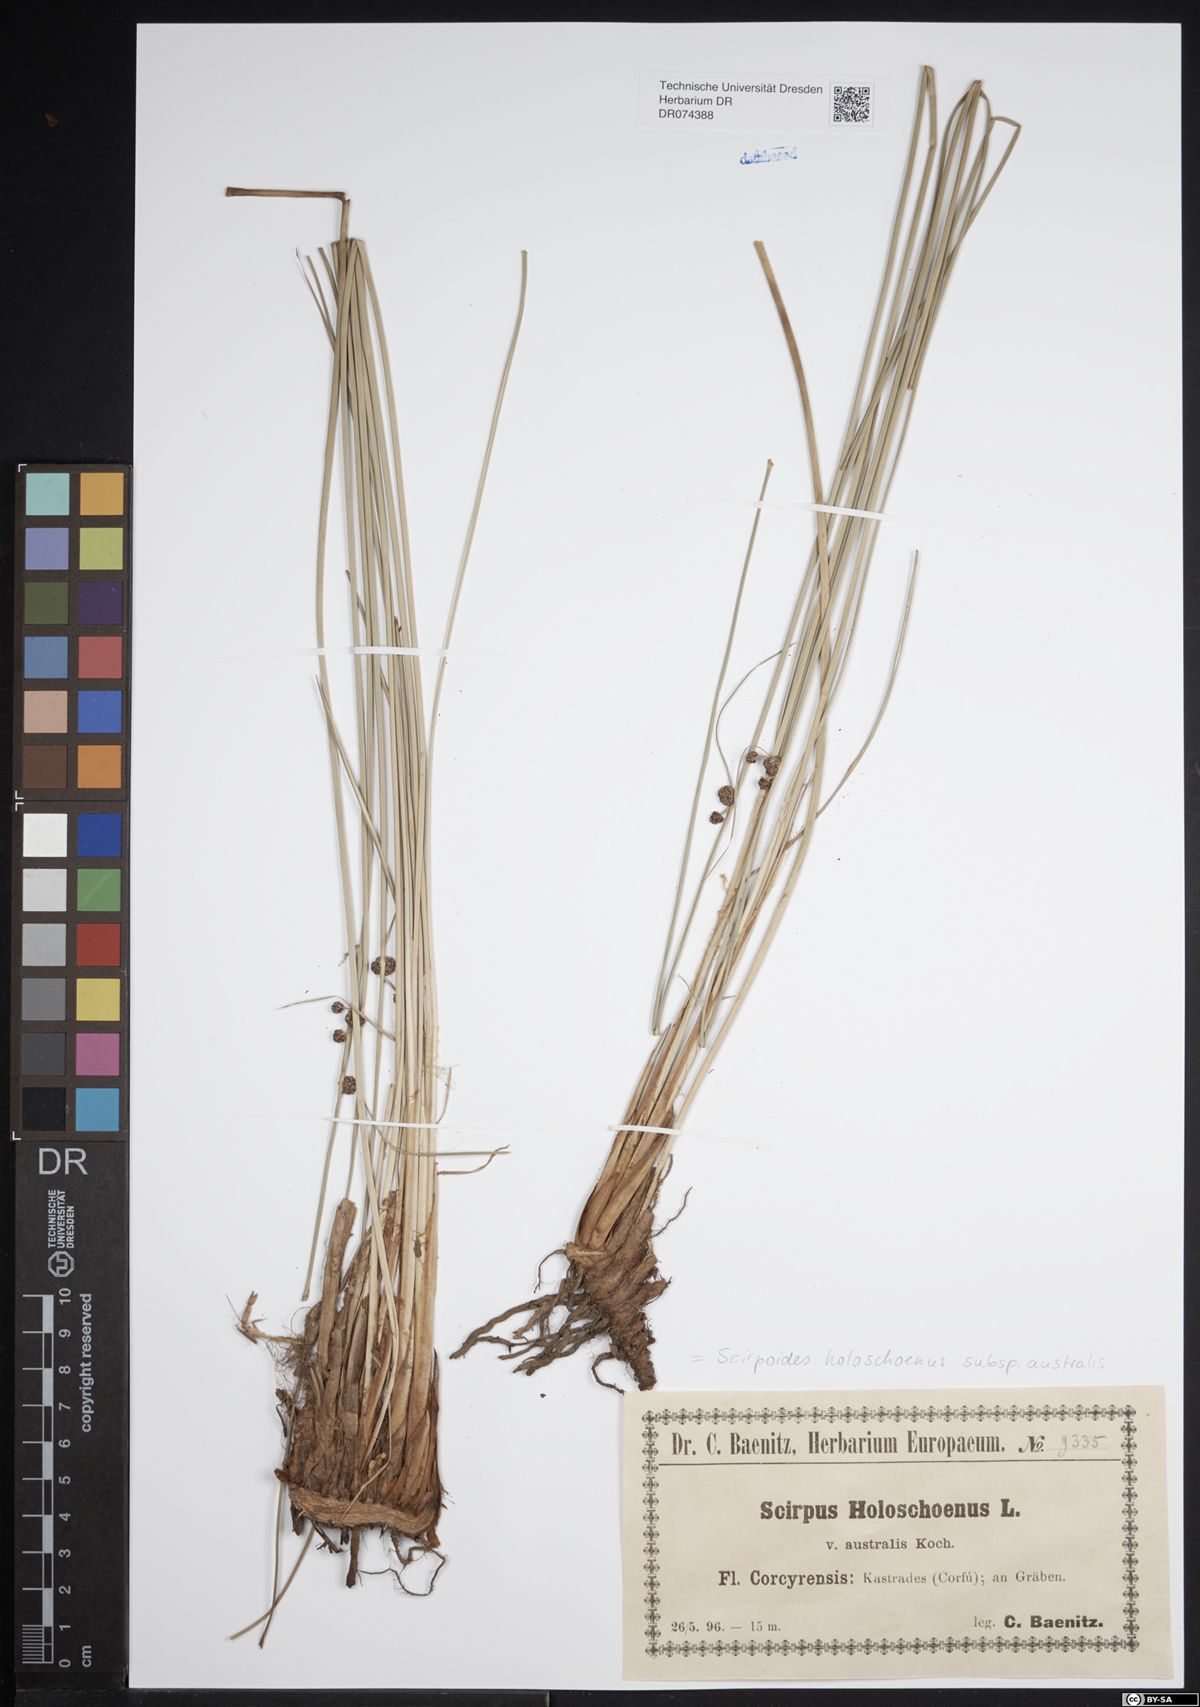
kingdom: Plantae
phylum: Tracheophyta
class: Liliopsida
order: Poales
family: Cyperaceae
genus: Scirpoides
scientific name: Scirpoides holoschoenus
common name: Round-headed club-rush
